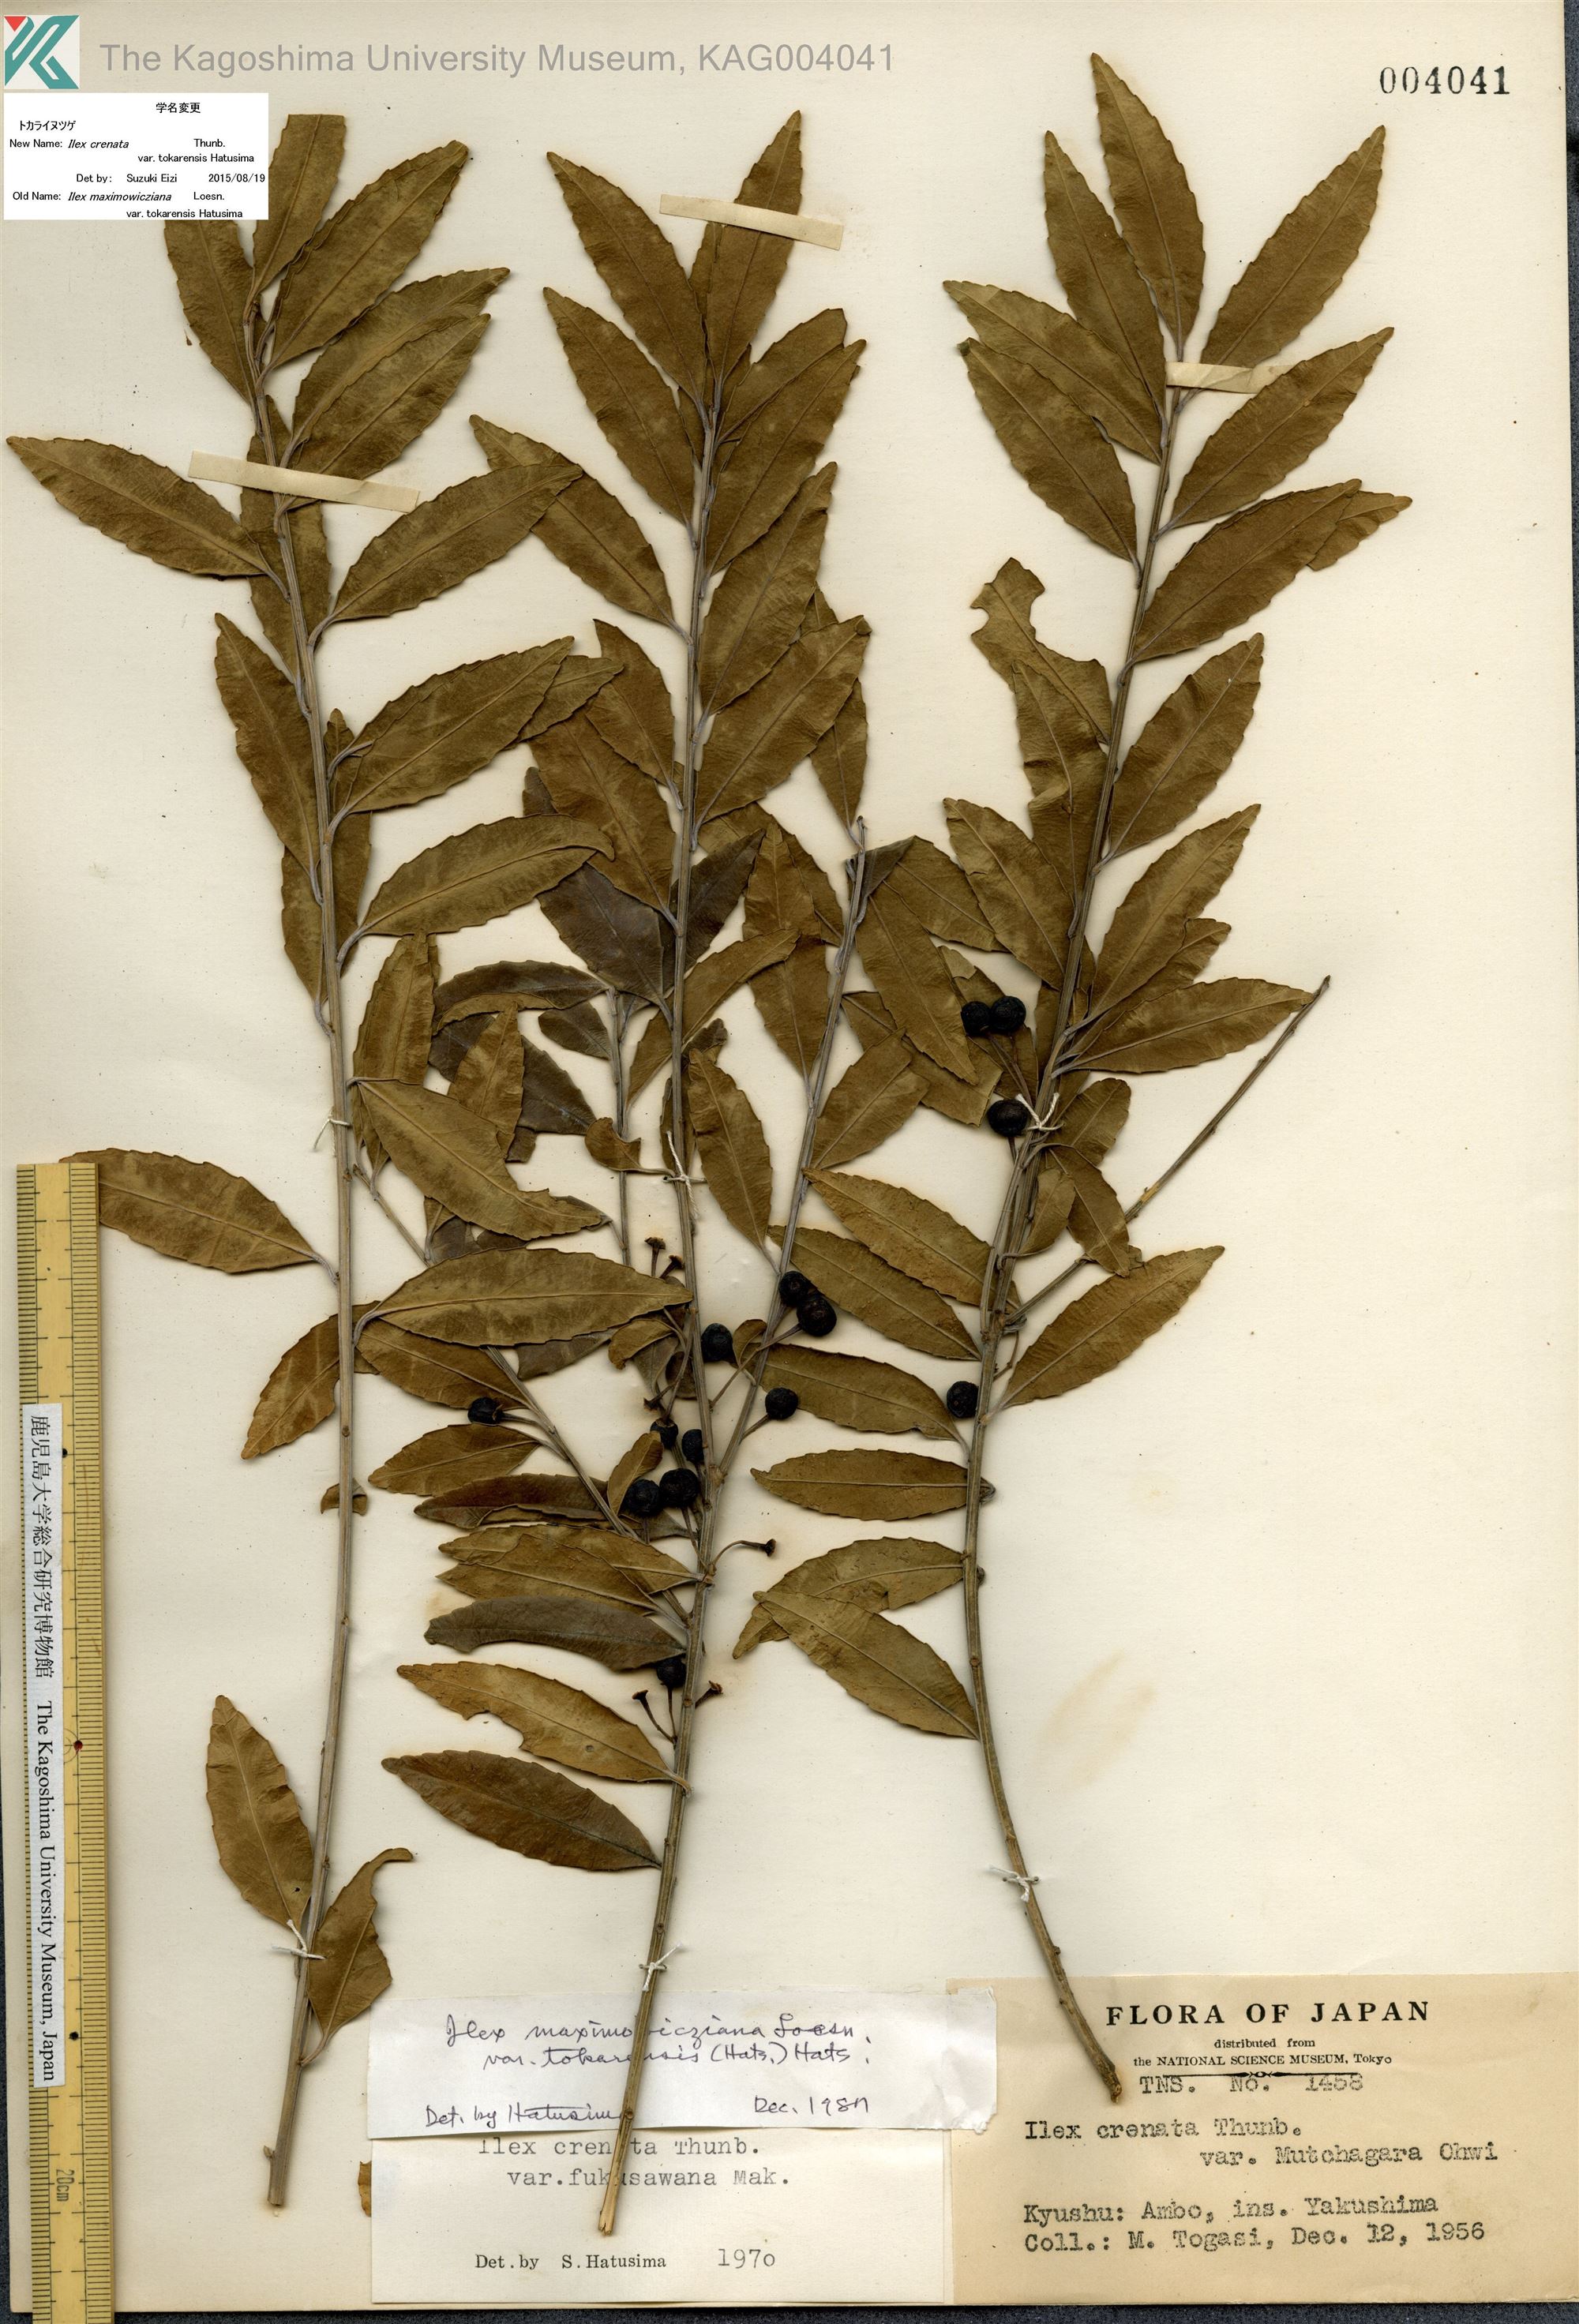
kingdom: Plantae
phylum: Tracheophyta
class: Magnoliopsida
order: Aquifoliales
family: Aquifoliaceae
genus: Ilex
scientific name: Ilex crenata
